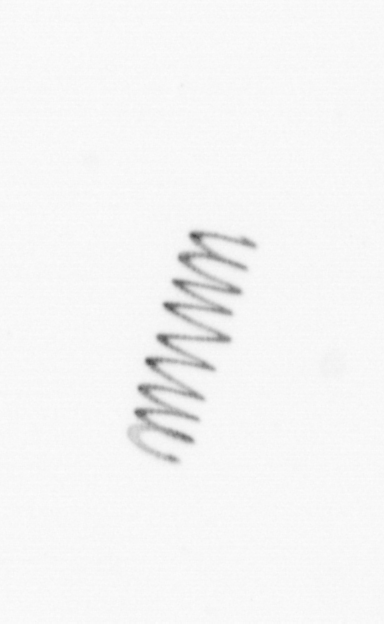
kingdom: Chromista
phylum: Ochrophyta
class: Bacillariophyceae
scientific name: Bacillariophyceae
